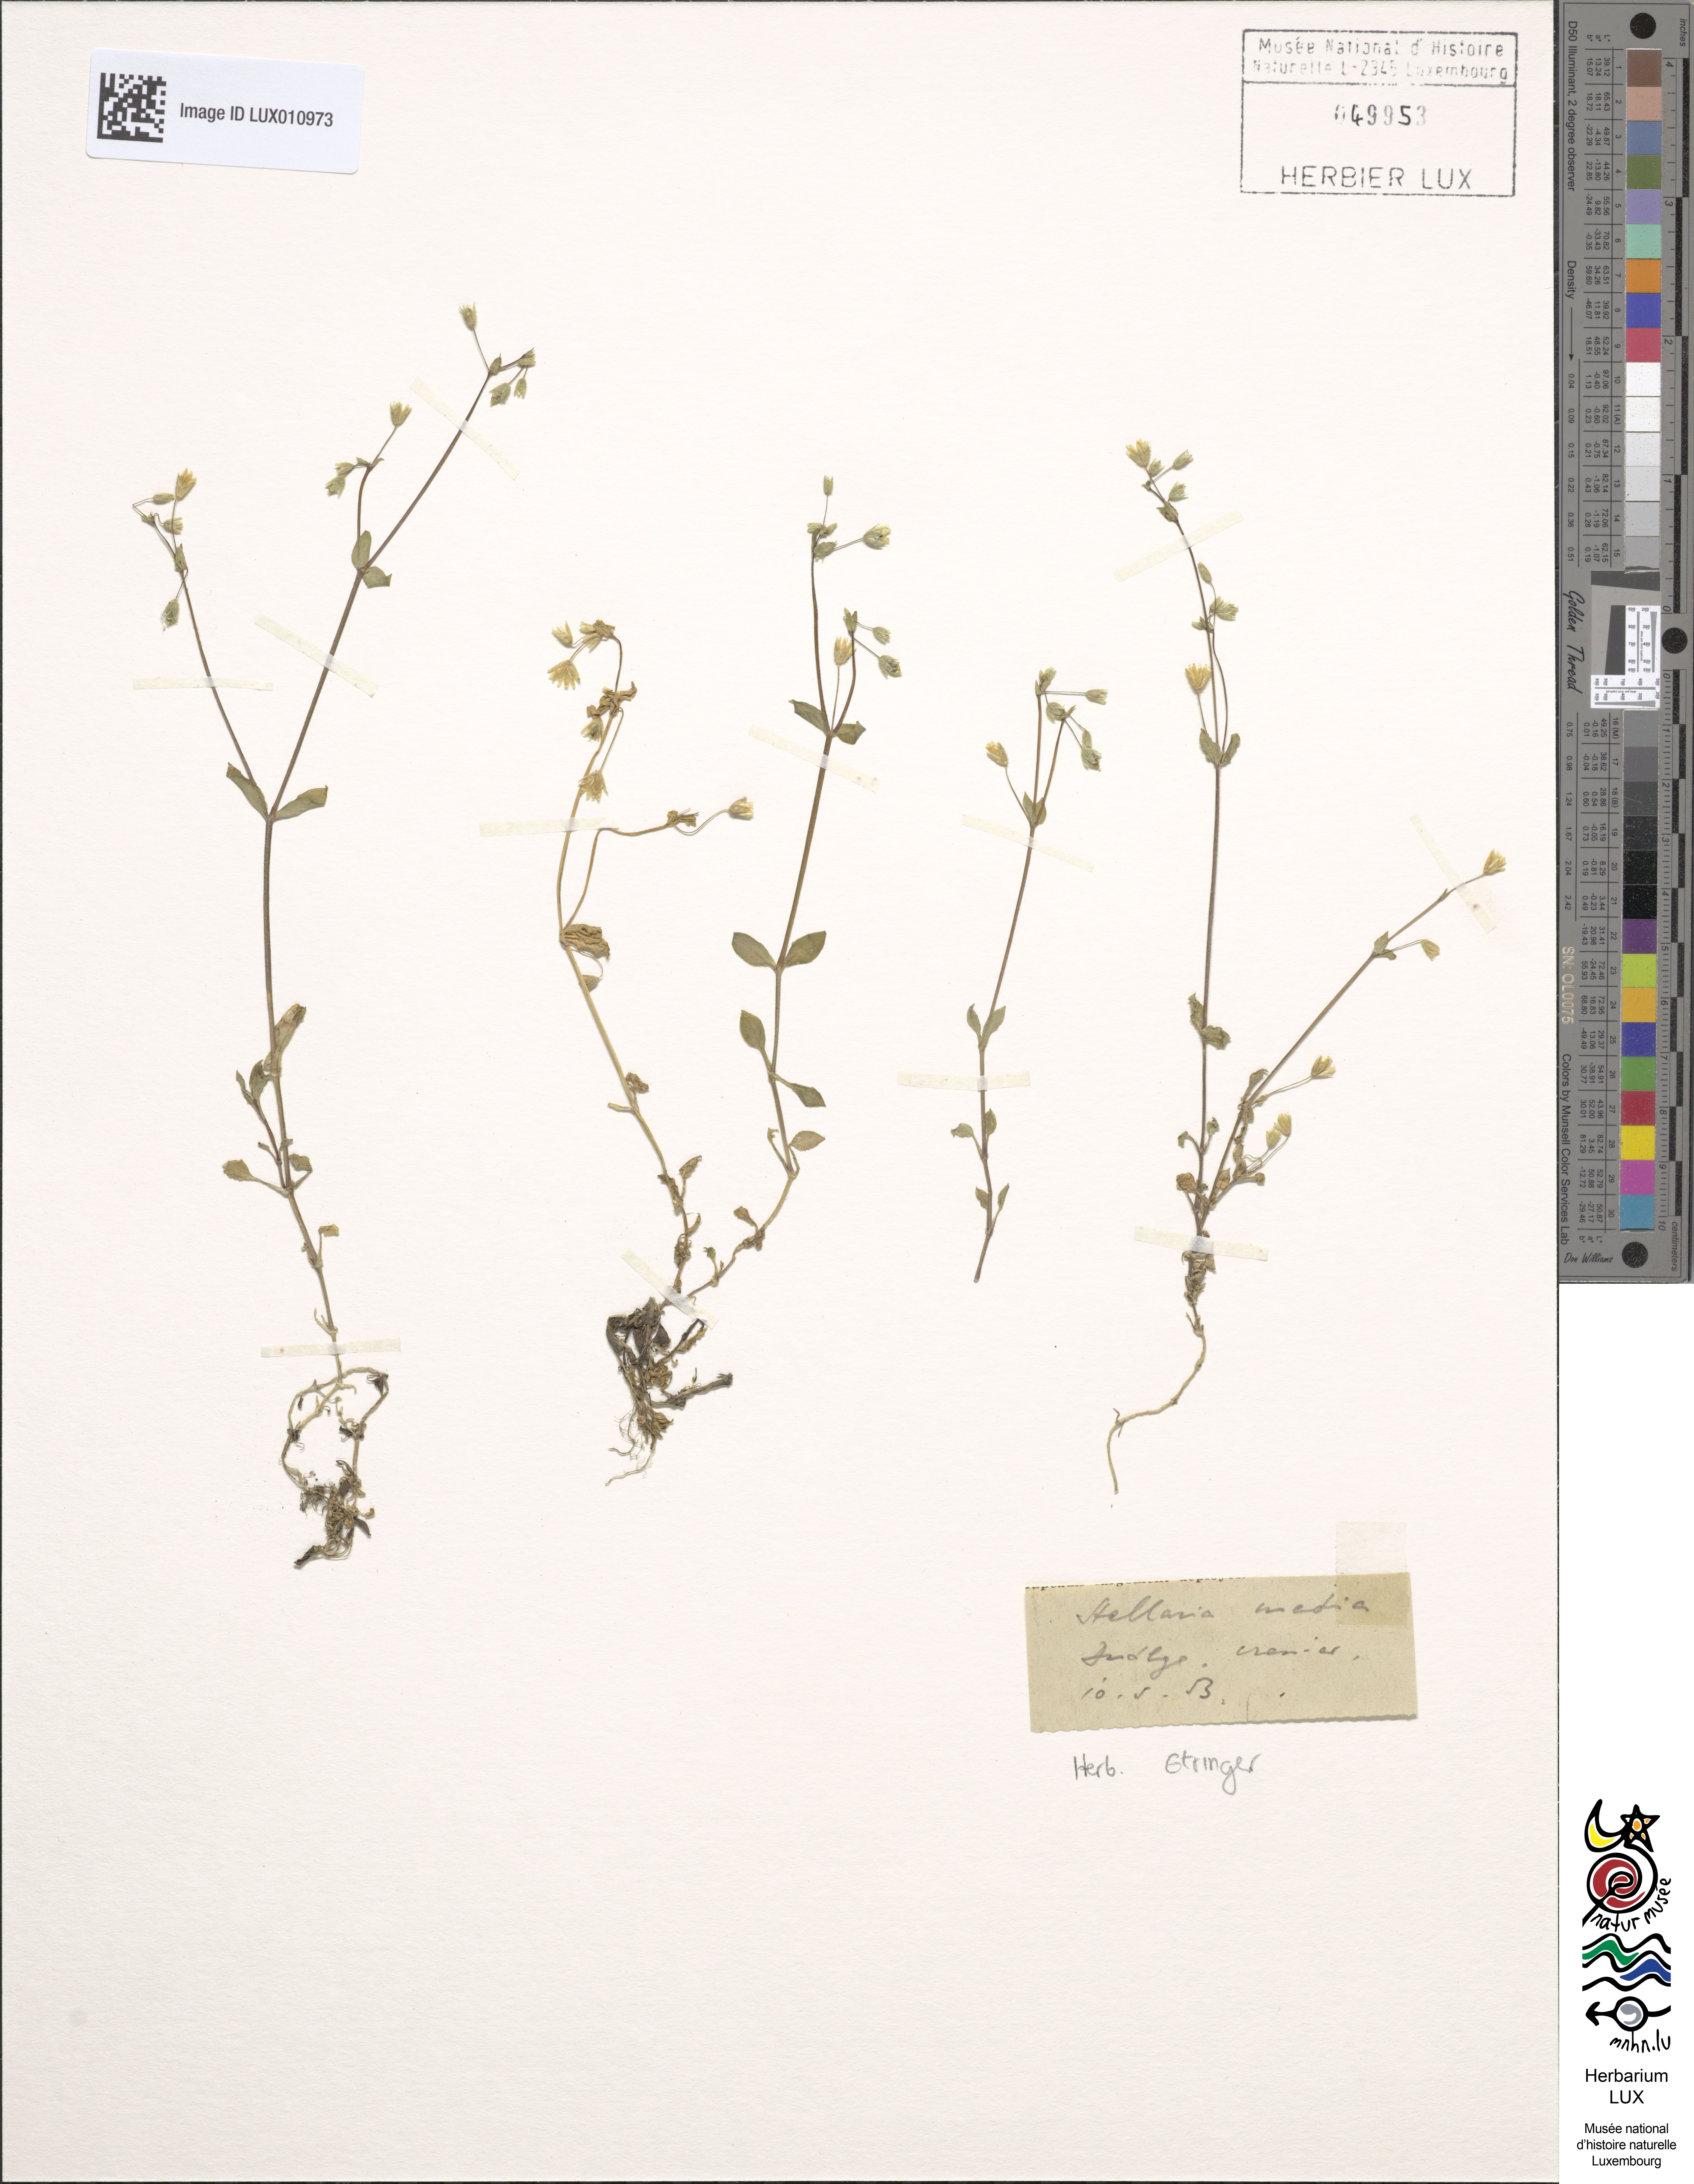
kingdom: Plantae
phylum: Tracheophyta
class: Magnoliopsida
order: Caryophyllales
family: Caryophyllaceae
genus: Stellaria
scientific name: Stellaria media
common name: Common chickweed
